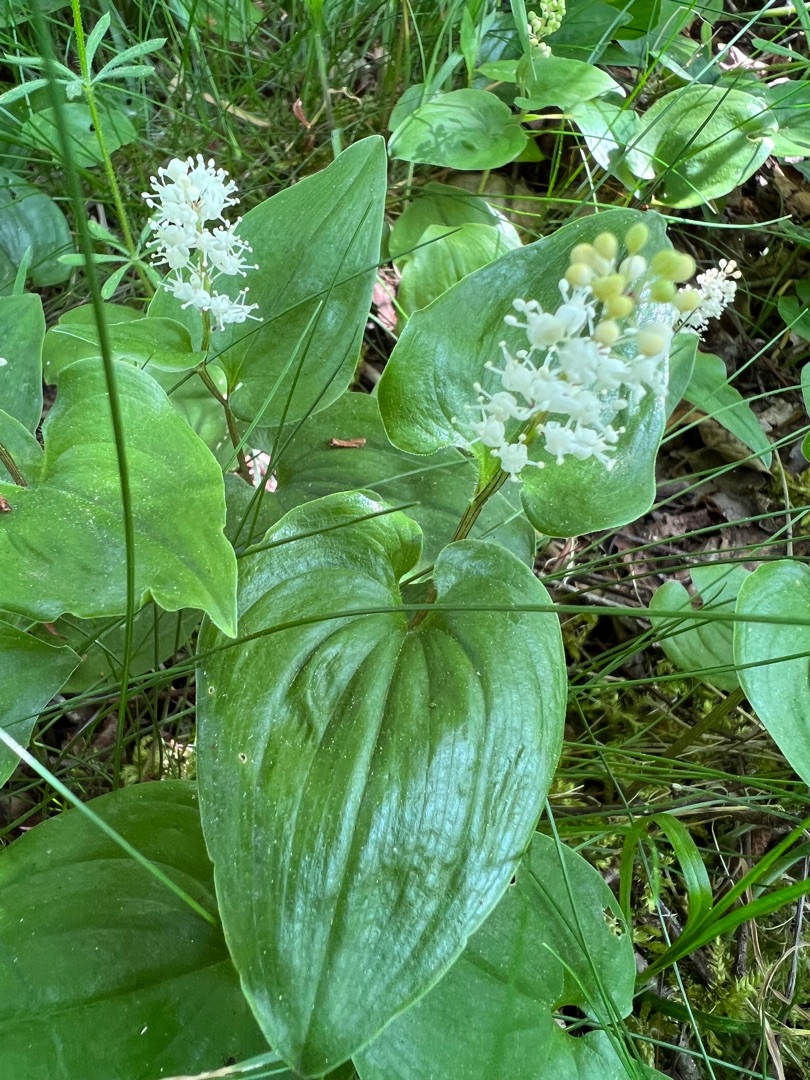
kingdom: Plantae
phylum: Tracheophyta
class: Liliopsida
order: Asparagales
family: Asparagaceae
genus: Maianthemum
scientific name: Maianthemum bifolium
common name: Majblomst
